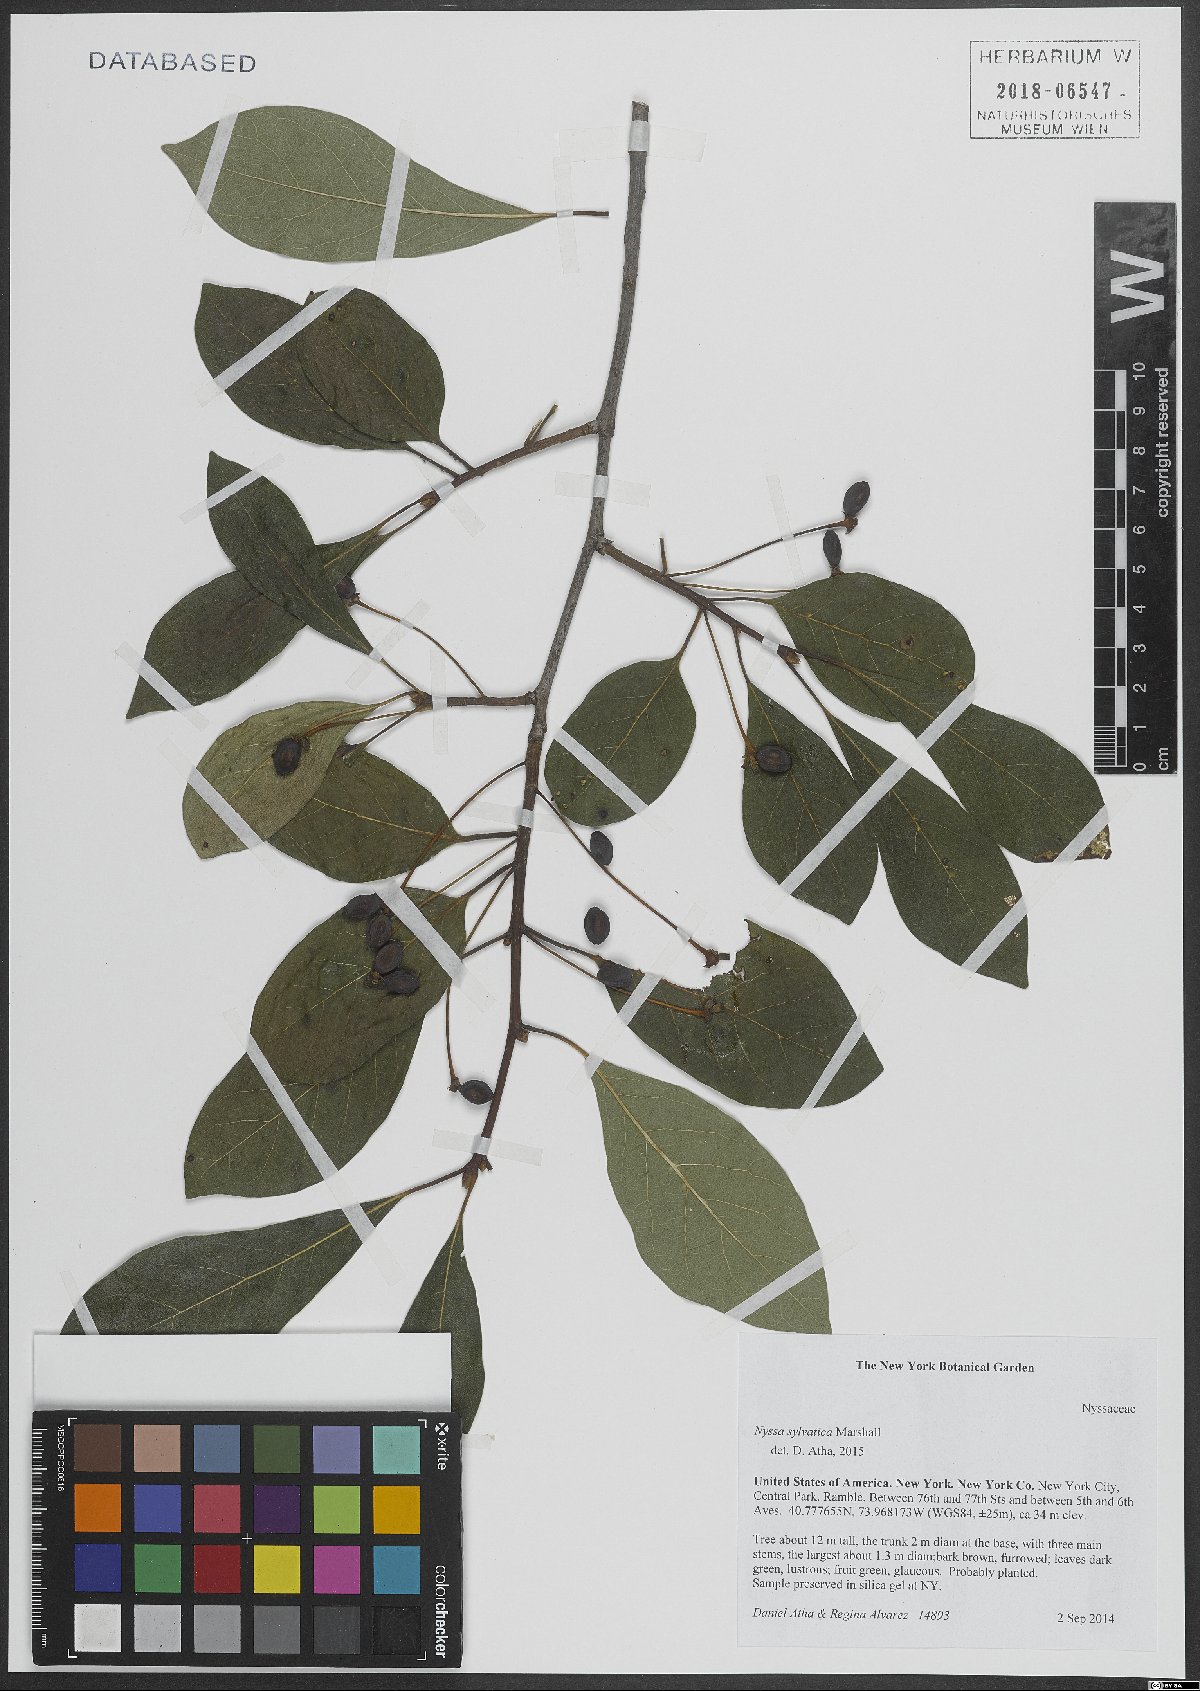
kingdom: Plantae
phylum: Tracheophyta
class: Magnoliopsida
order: Cornales
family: Nyssaceae
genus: Nyssa
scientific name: Nyssa sylvatica
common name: Black tupelo
